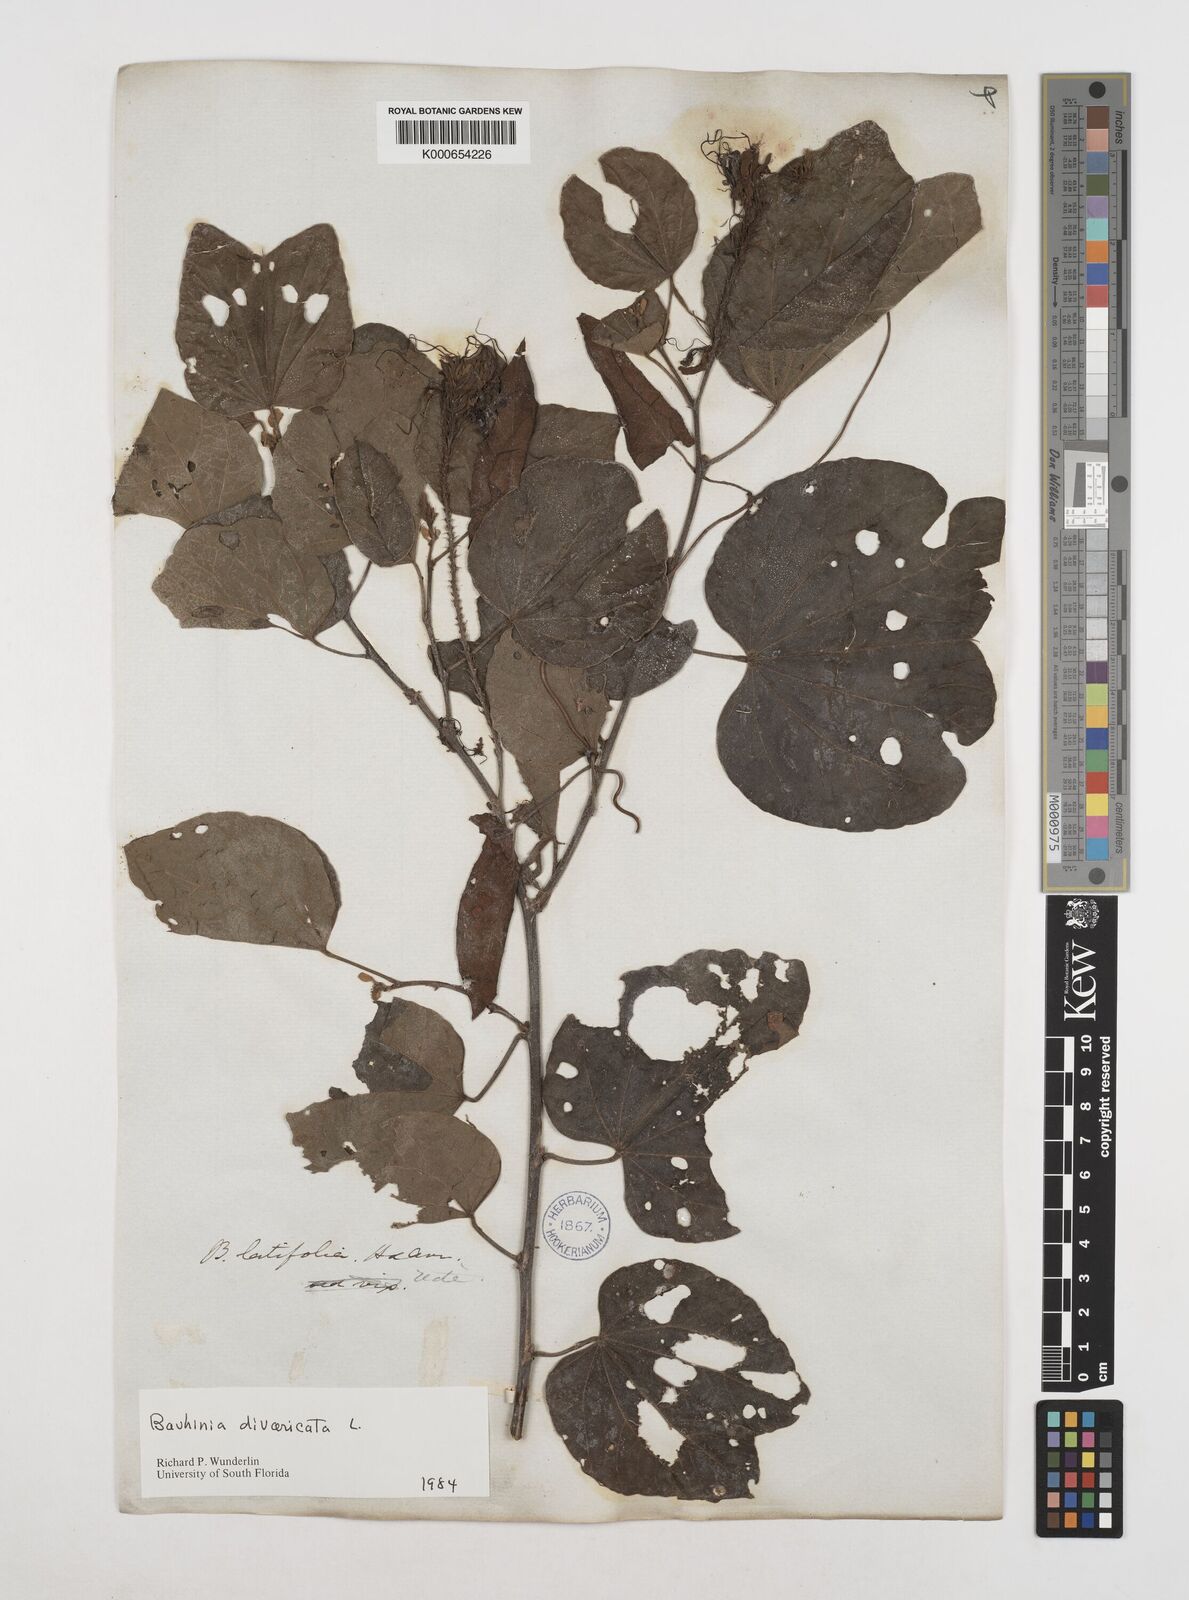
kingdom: Plantae
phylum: Tracheophyta
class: Magnoliopsida
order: Fabales
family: Fabaceae
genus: Bauhinia
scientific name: Bauhinia divaricata
